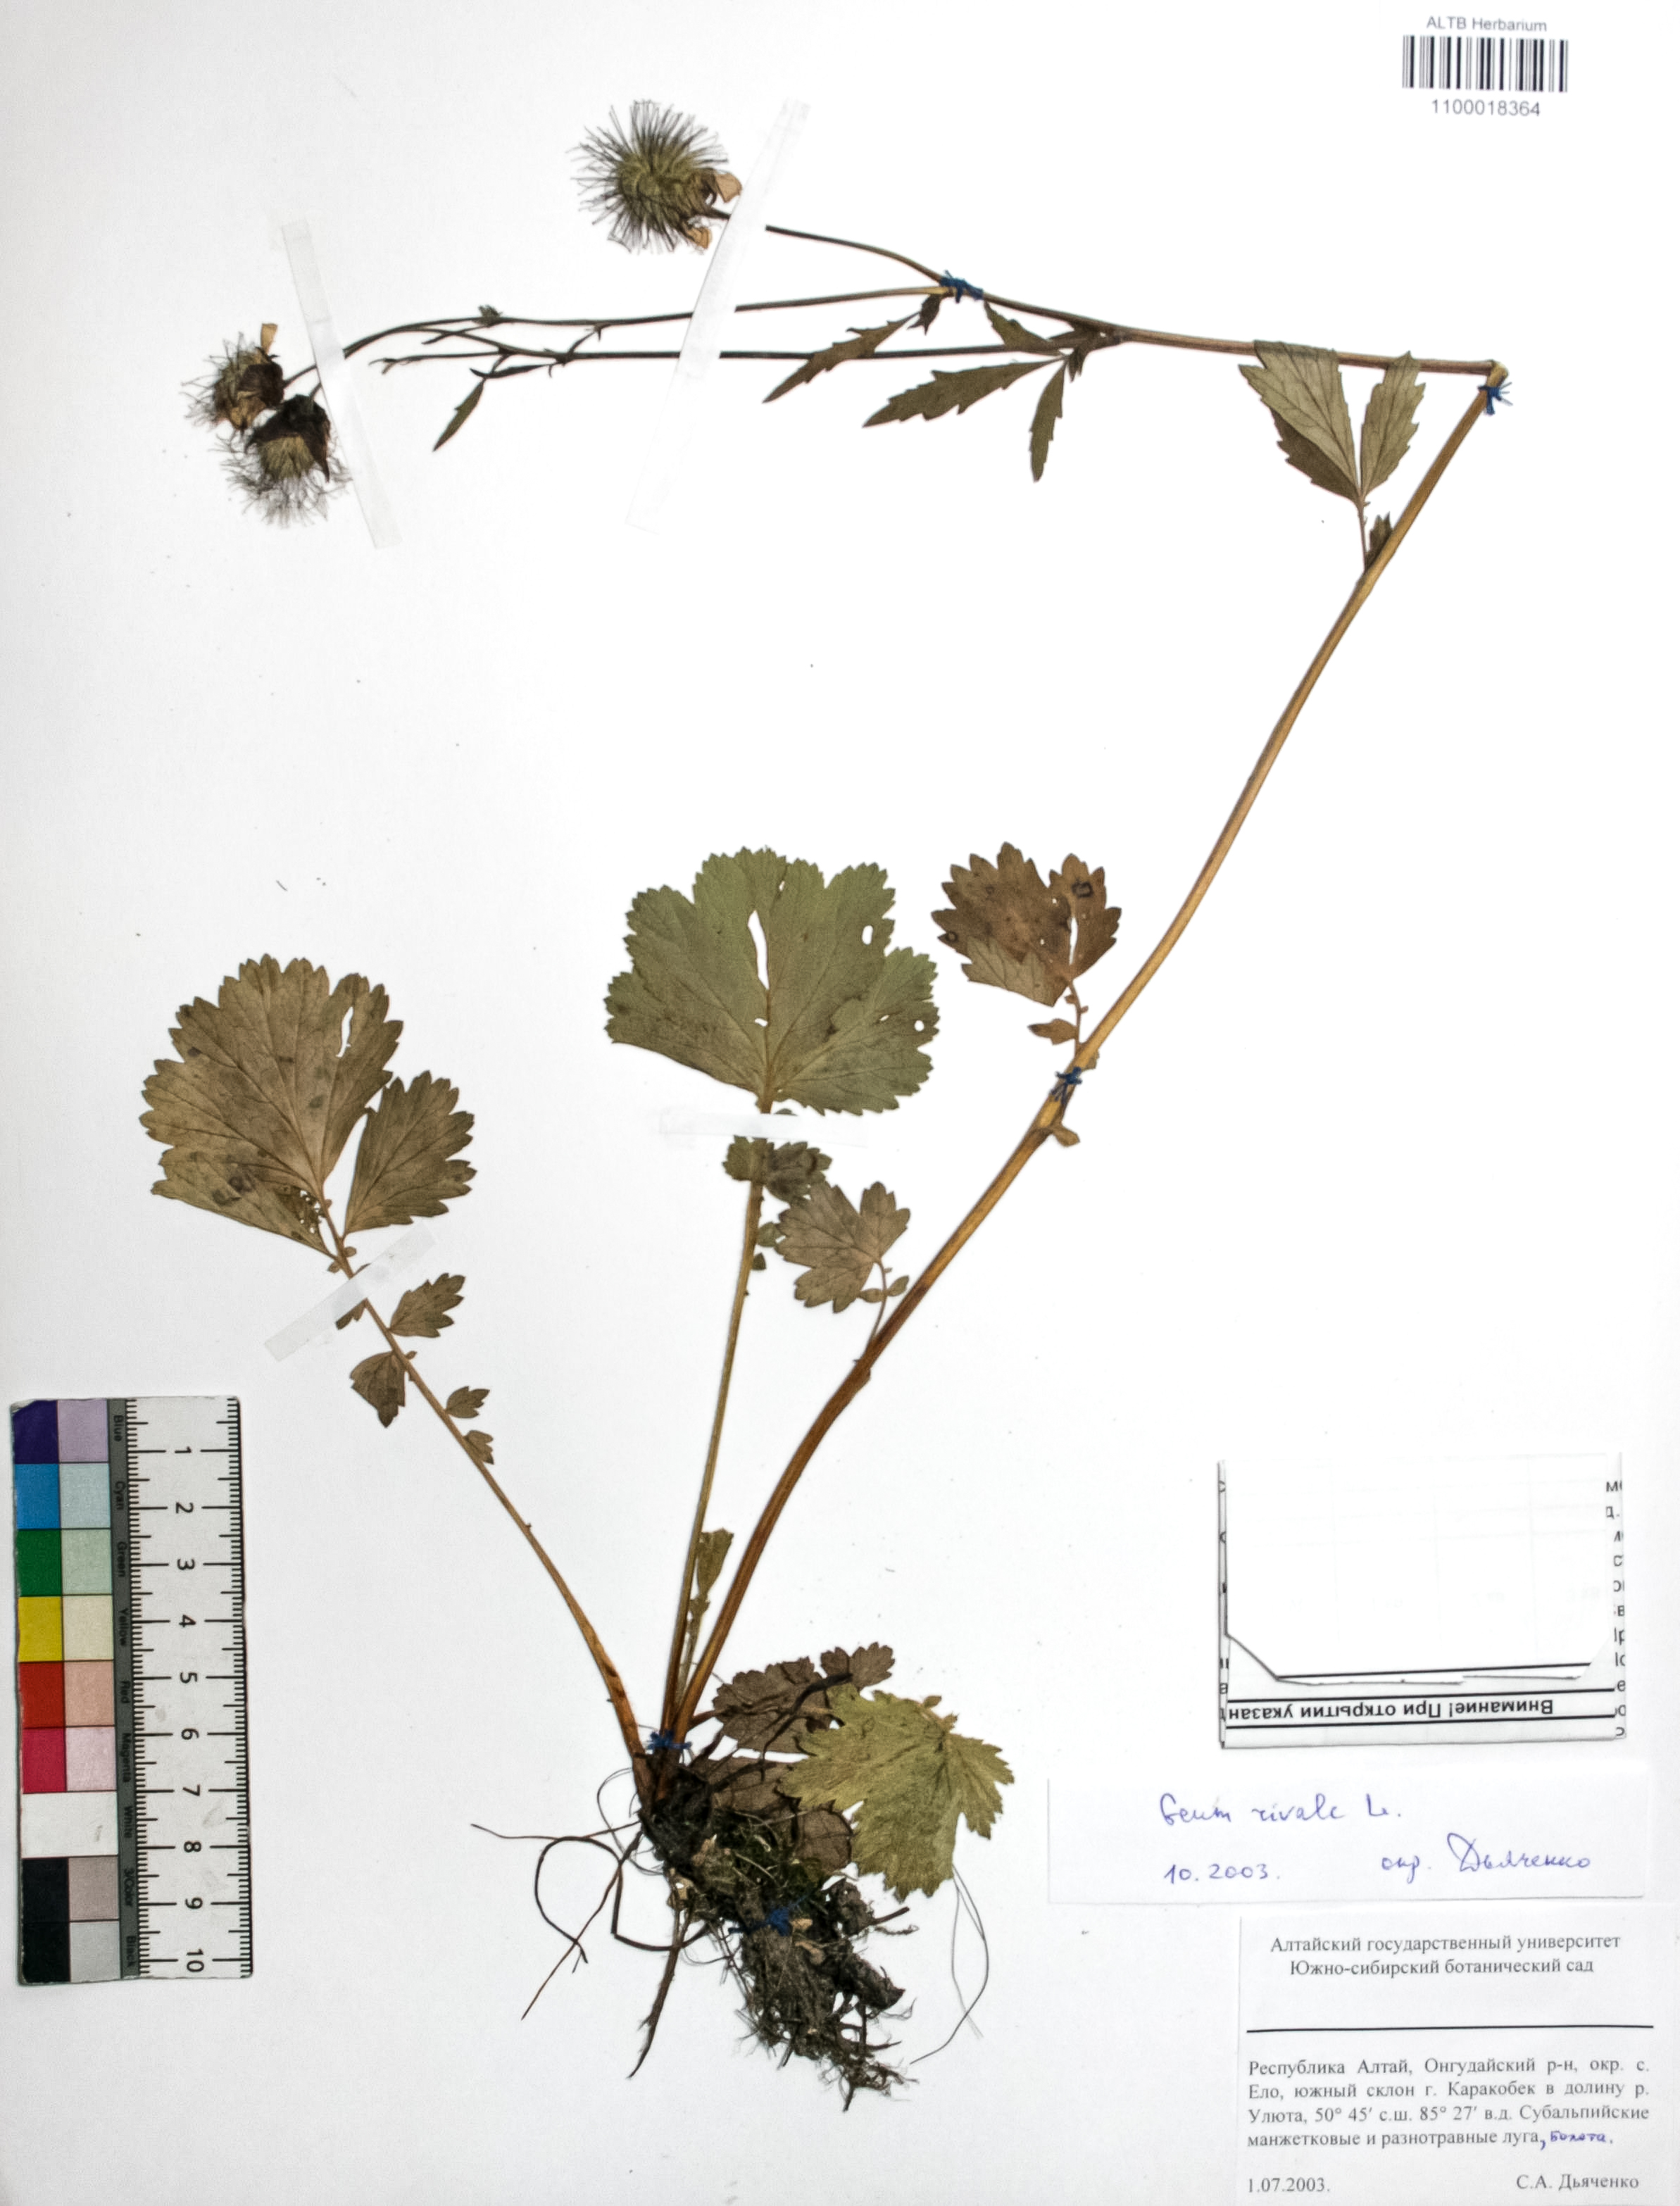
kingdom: Plantae
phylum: Tracheophyta
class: Magnoliopsida
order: Rosales
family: Rosaceae
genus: Geum
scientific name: Geum rivale
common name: Water avens
